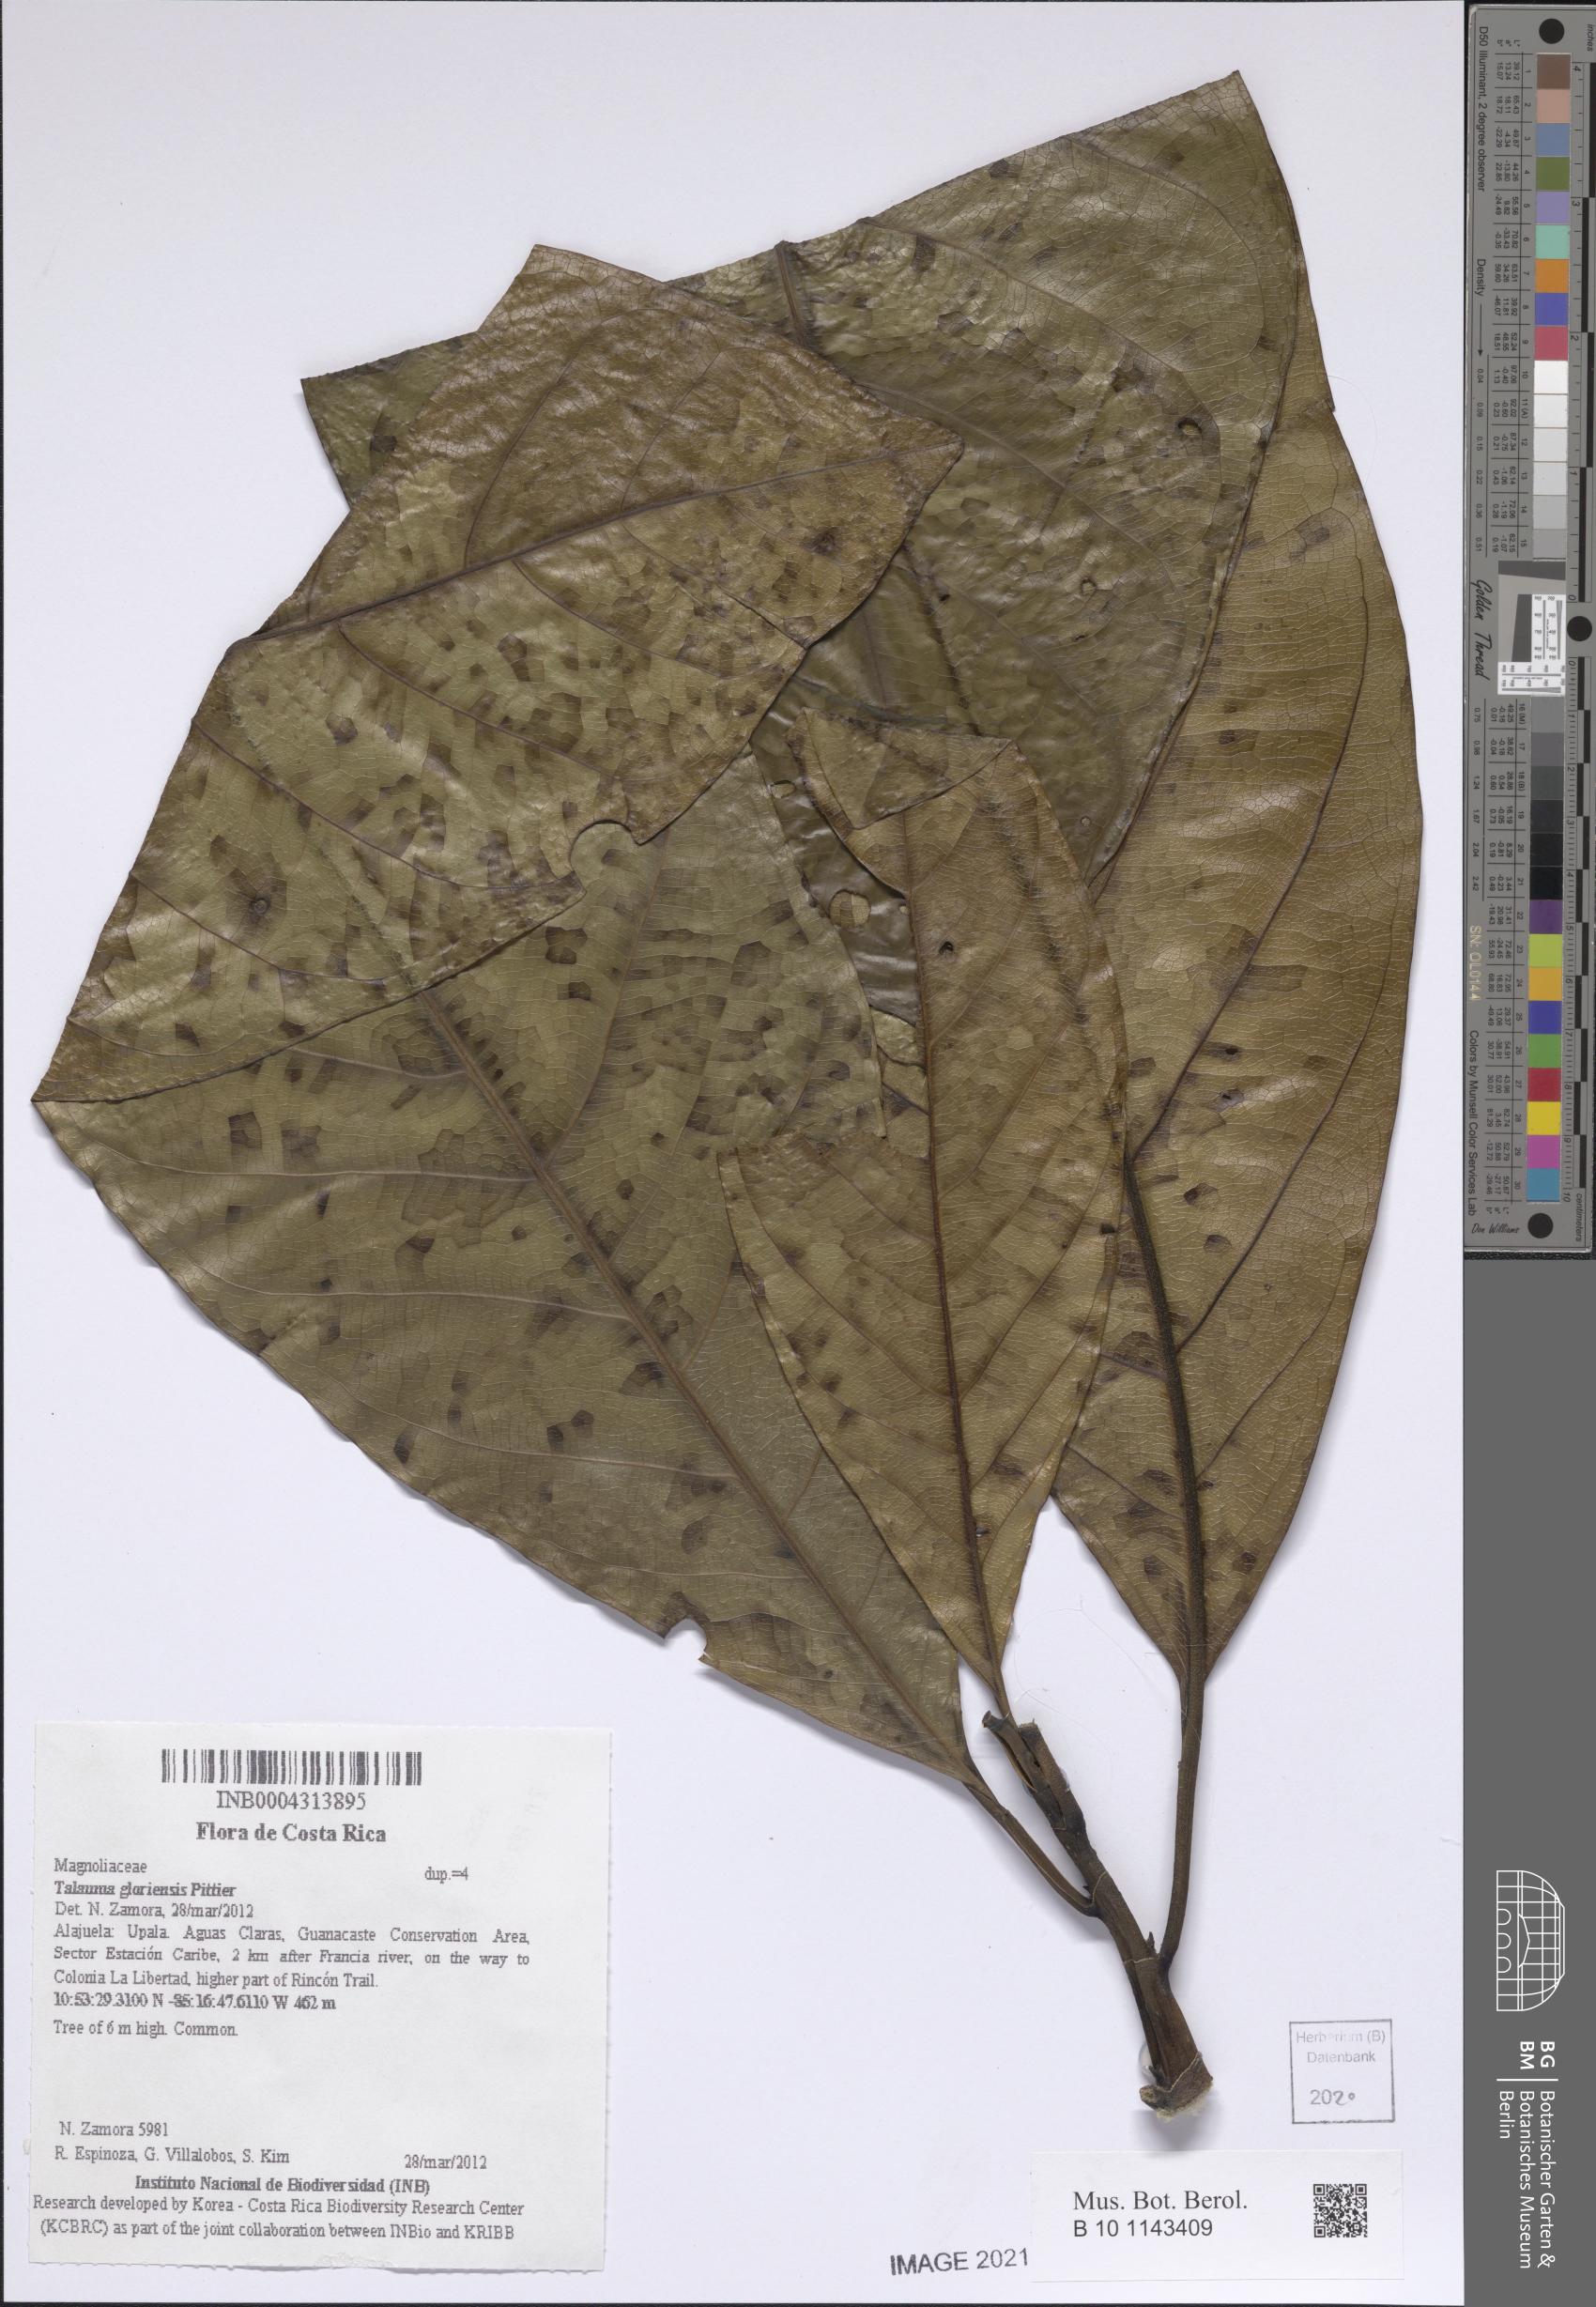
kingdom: Plantae
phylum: Tracheophyta
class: Magnoliopsida
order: Magnoliales
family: Magnoliaceae
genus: Magnolia
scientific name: Magnolia gloriensis
